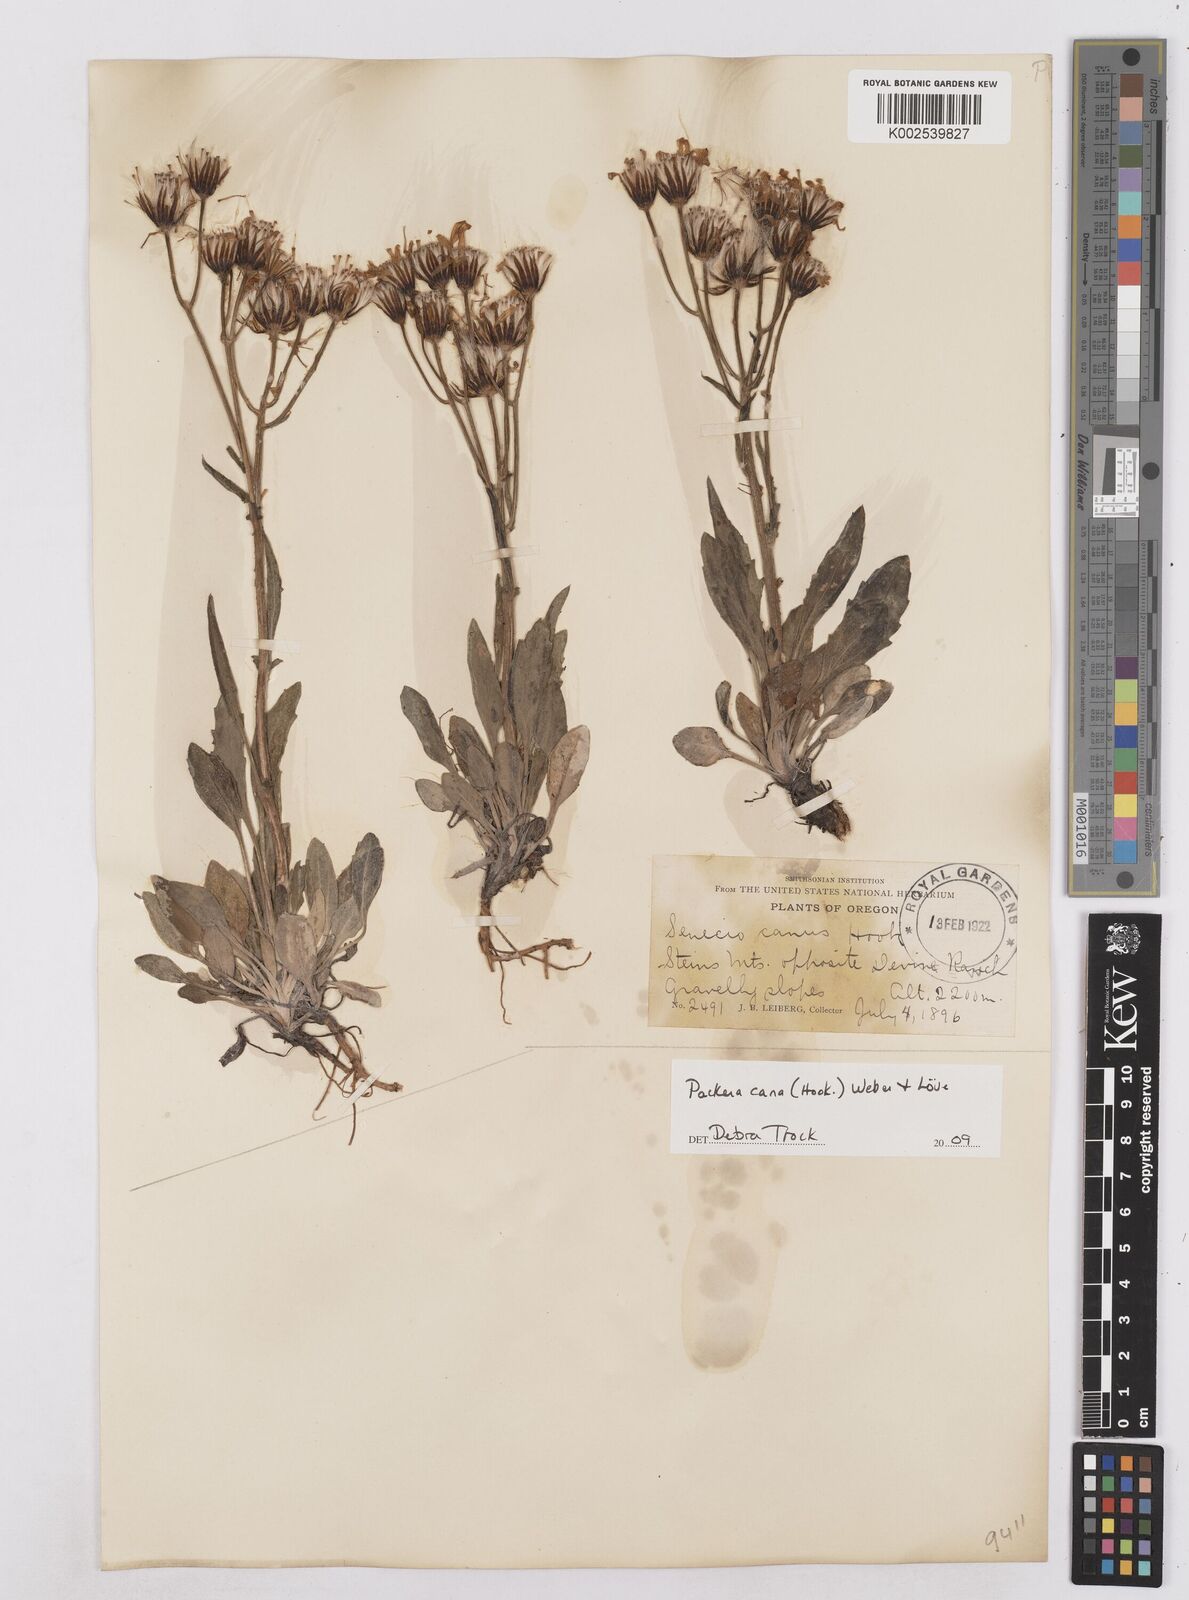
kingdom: Plantae
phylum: Tracheophyta
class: Magnoliopsida
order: Asterales
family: Asteraceae
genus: Packera
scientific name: Packera cana
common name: Woolly groundsel
